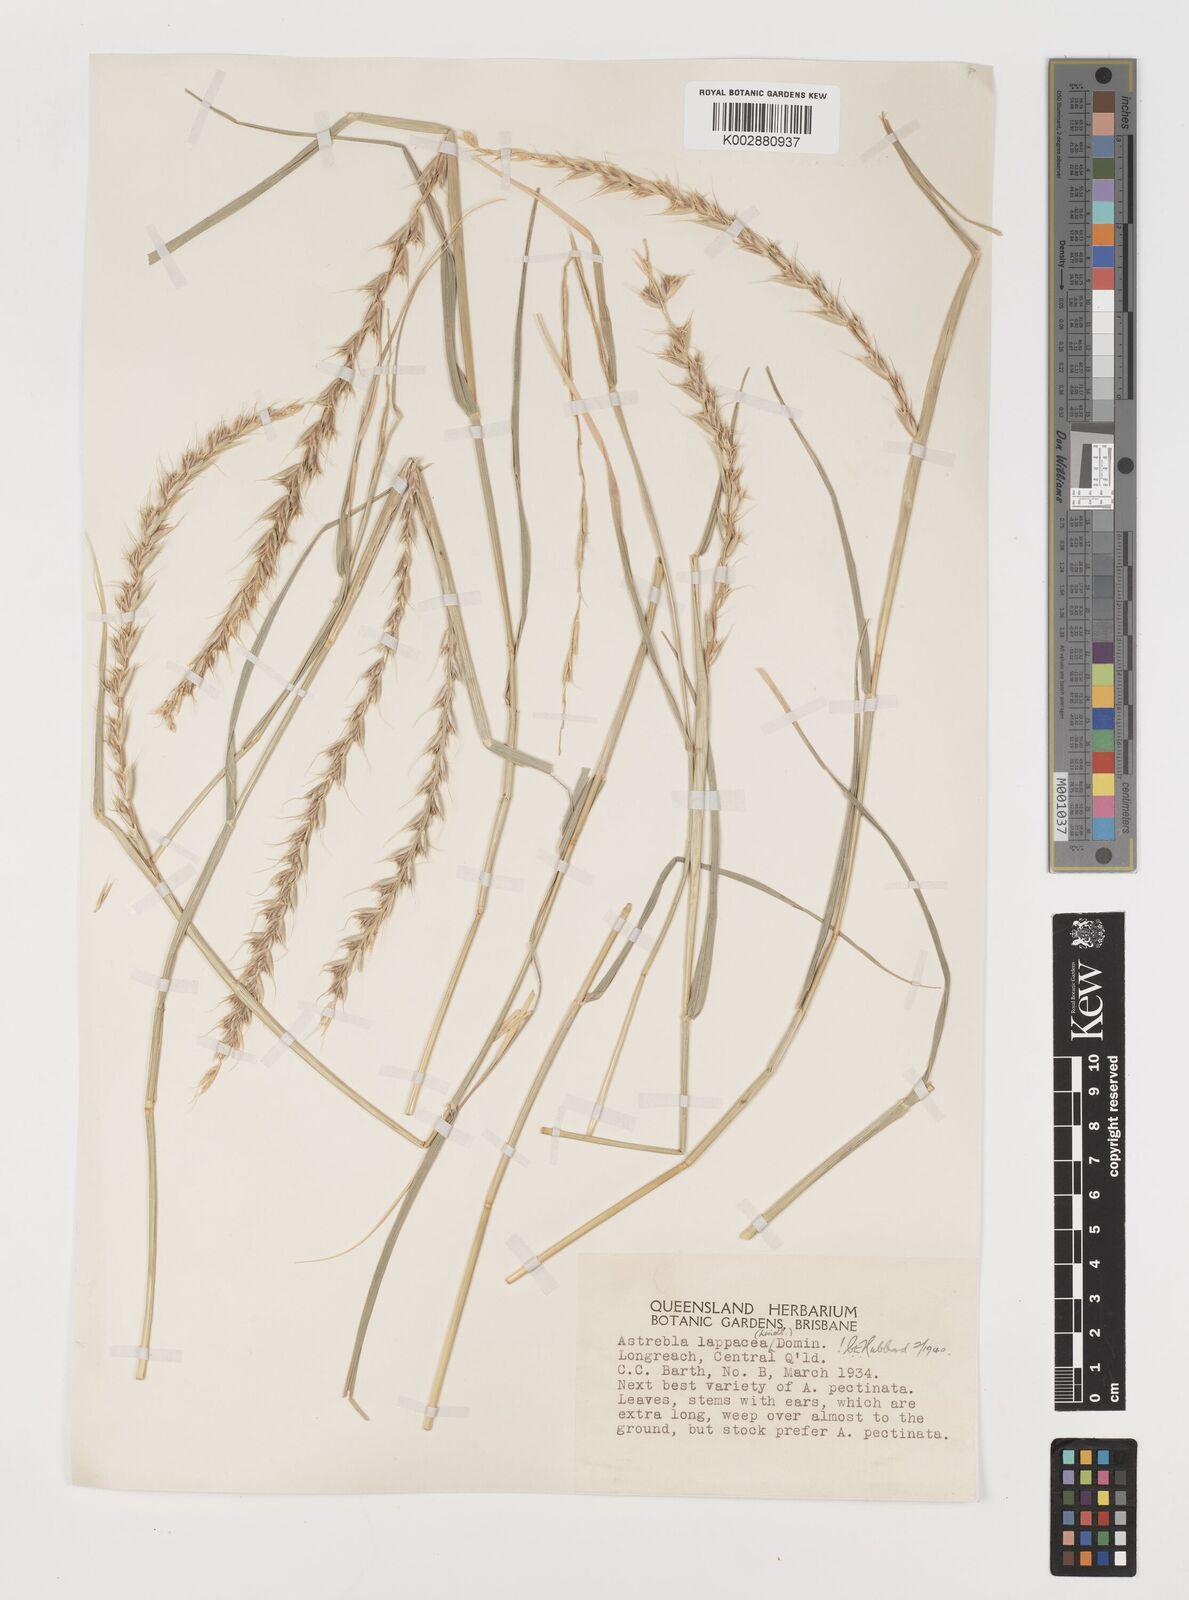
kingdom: Plantae
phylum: Tracheophyta
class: Liliopsida
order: Poales
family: Poaceae
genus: Astrebla
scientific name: Astrebla lappacea
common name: Curly mitchell grass
